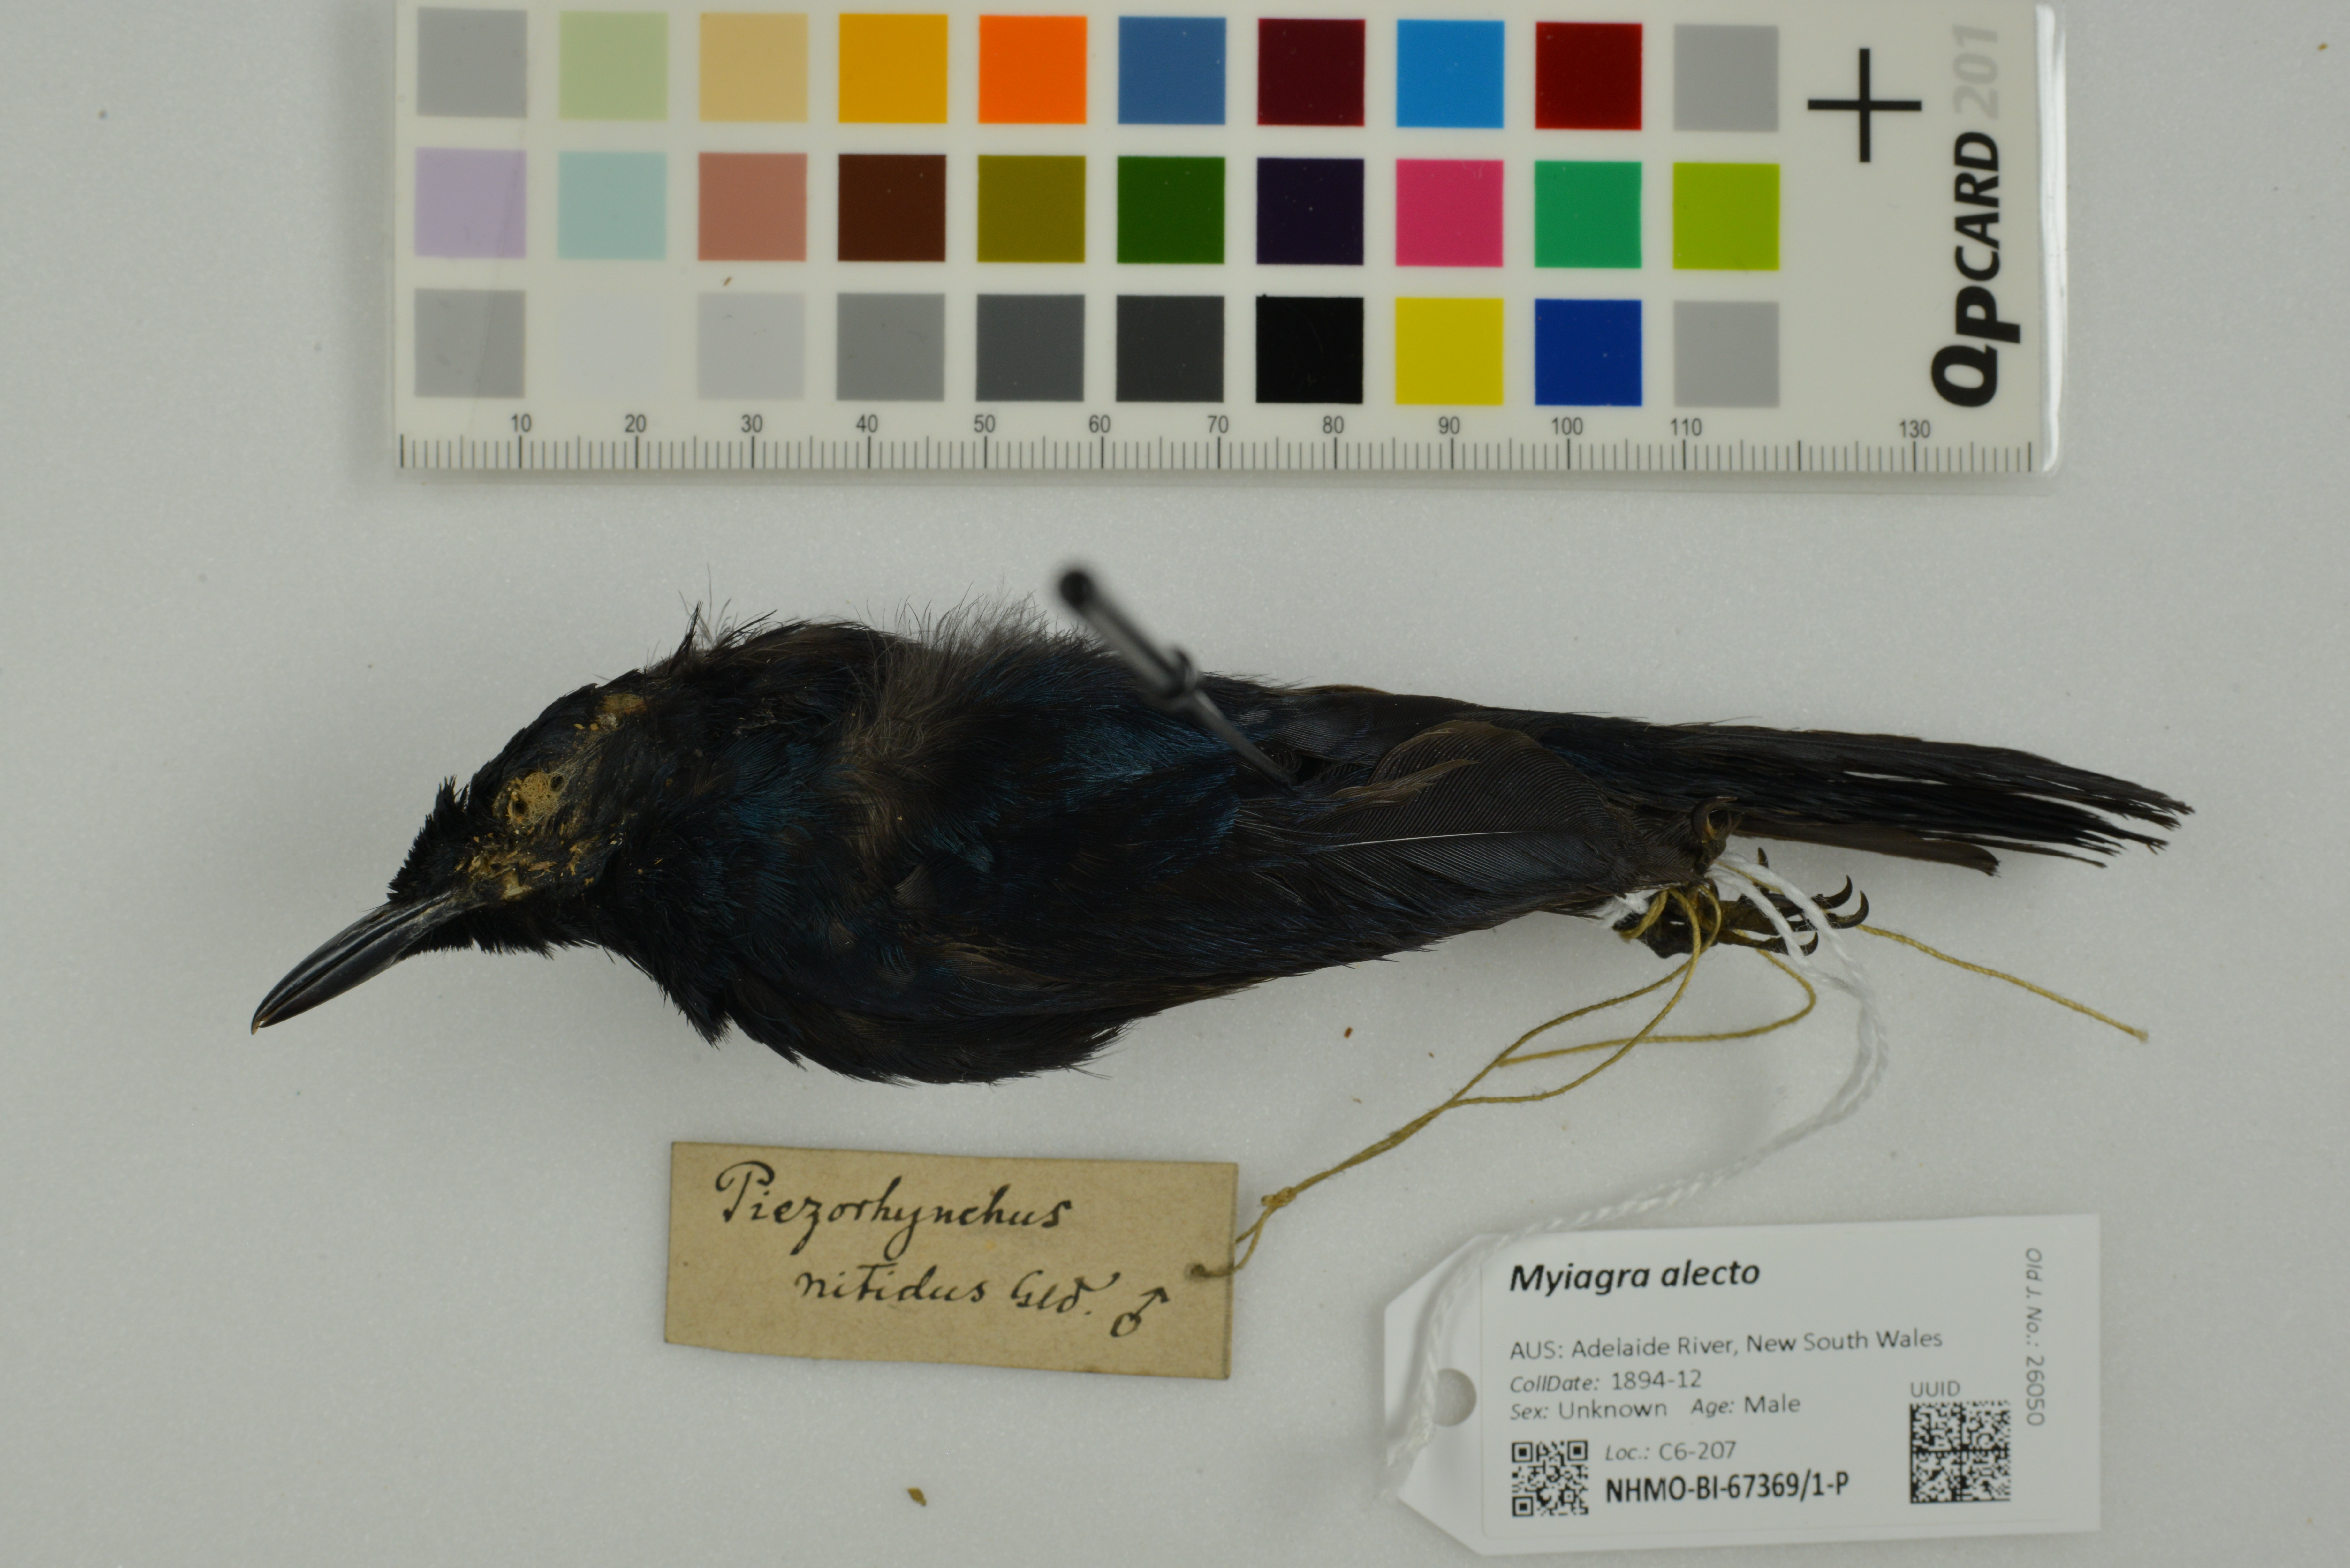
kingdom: Animalia
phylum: Chordata
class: Aves
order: Passeriformes
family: Monarchidae
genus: Myiagra
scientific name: Myiagra alecto
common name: Shining flycatcher
